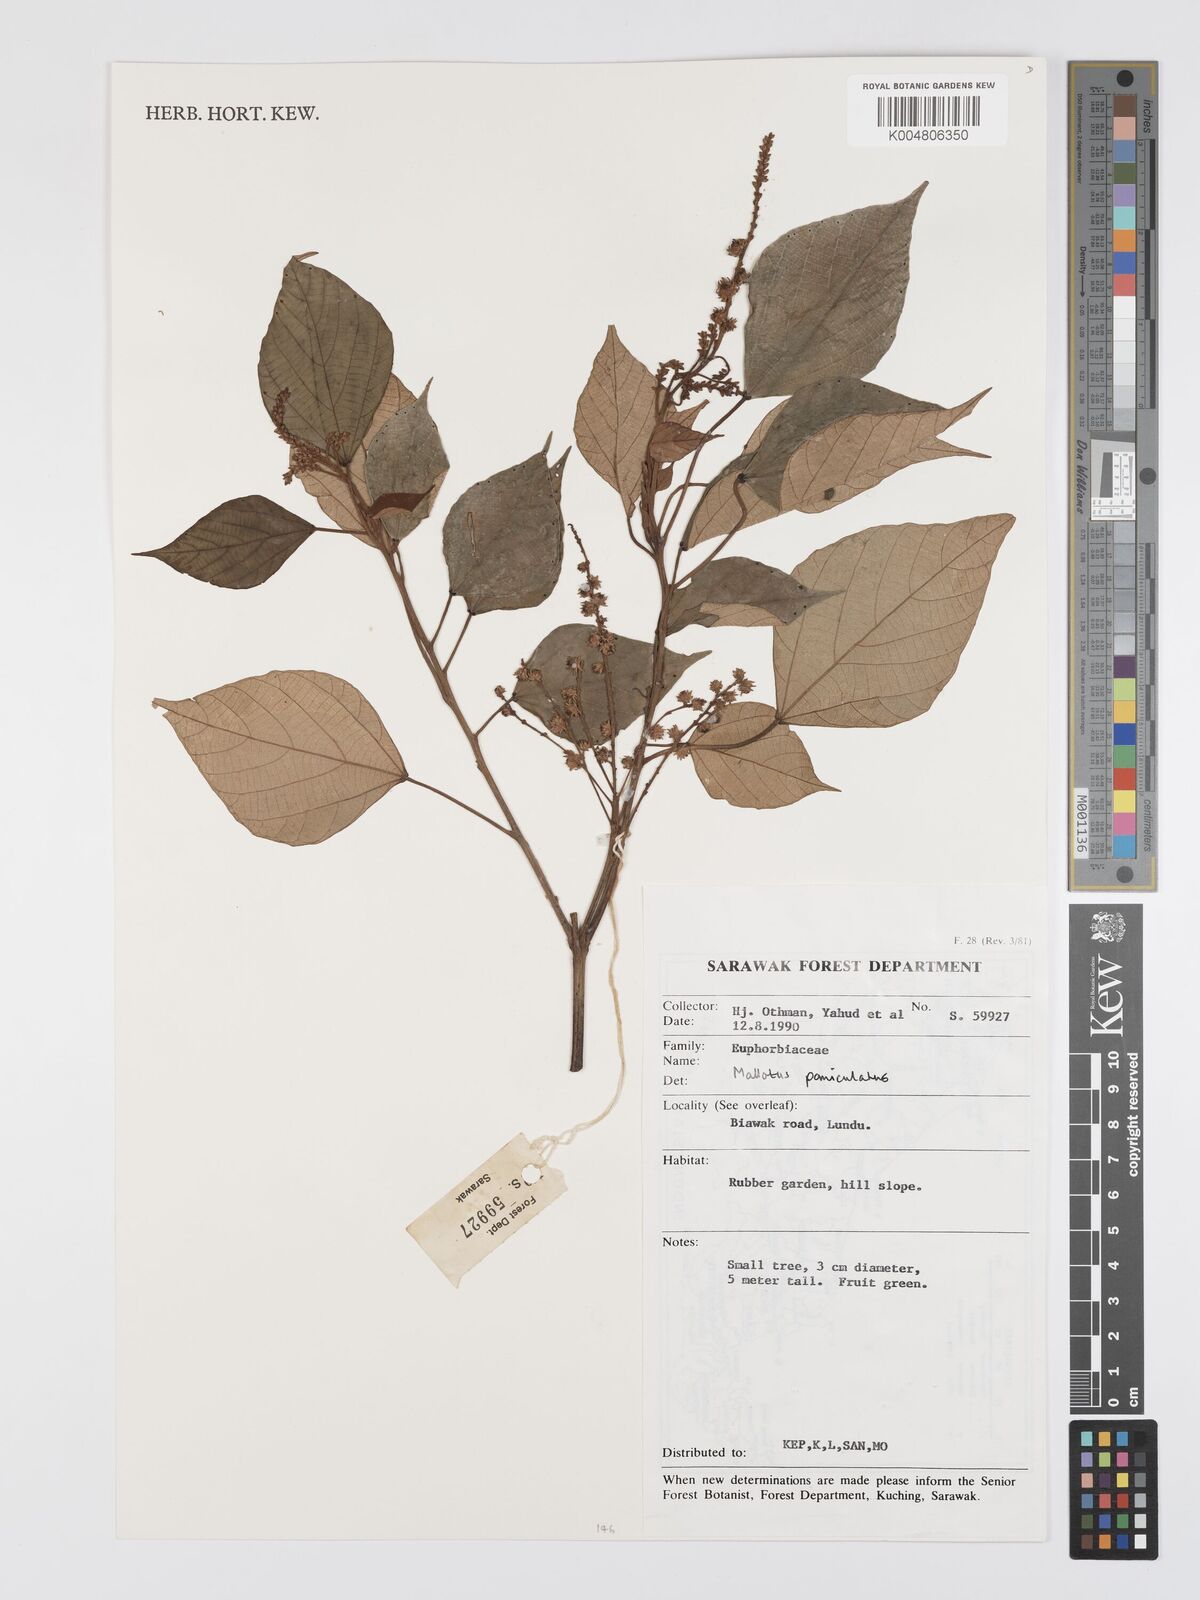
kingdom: Plantae
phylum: Tracheophyta
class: Magnoliopsida
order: Malpighiales
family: Euphorbiaceae
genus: Mallotus
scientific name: Mallotus paniculatus
